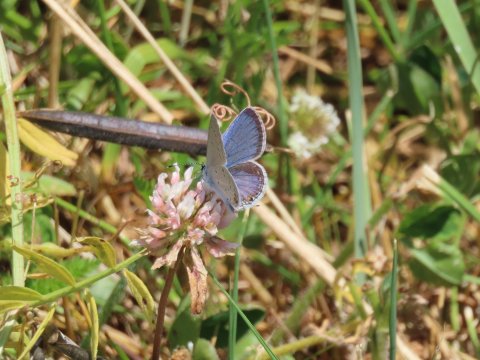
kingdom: Animalia
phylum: Arthropoda
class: Insecta
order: Lepidoptera
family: Lycaenidae
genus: Elkalyce
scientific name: Elkalyce comyntas
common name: Eastern Tailed-Blue
